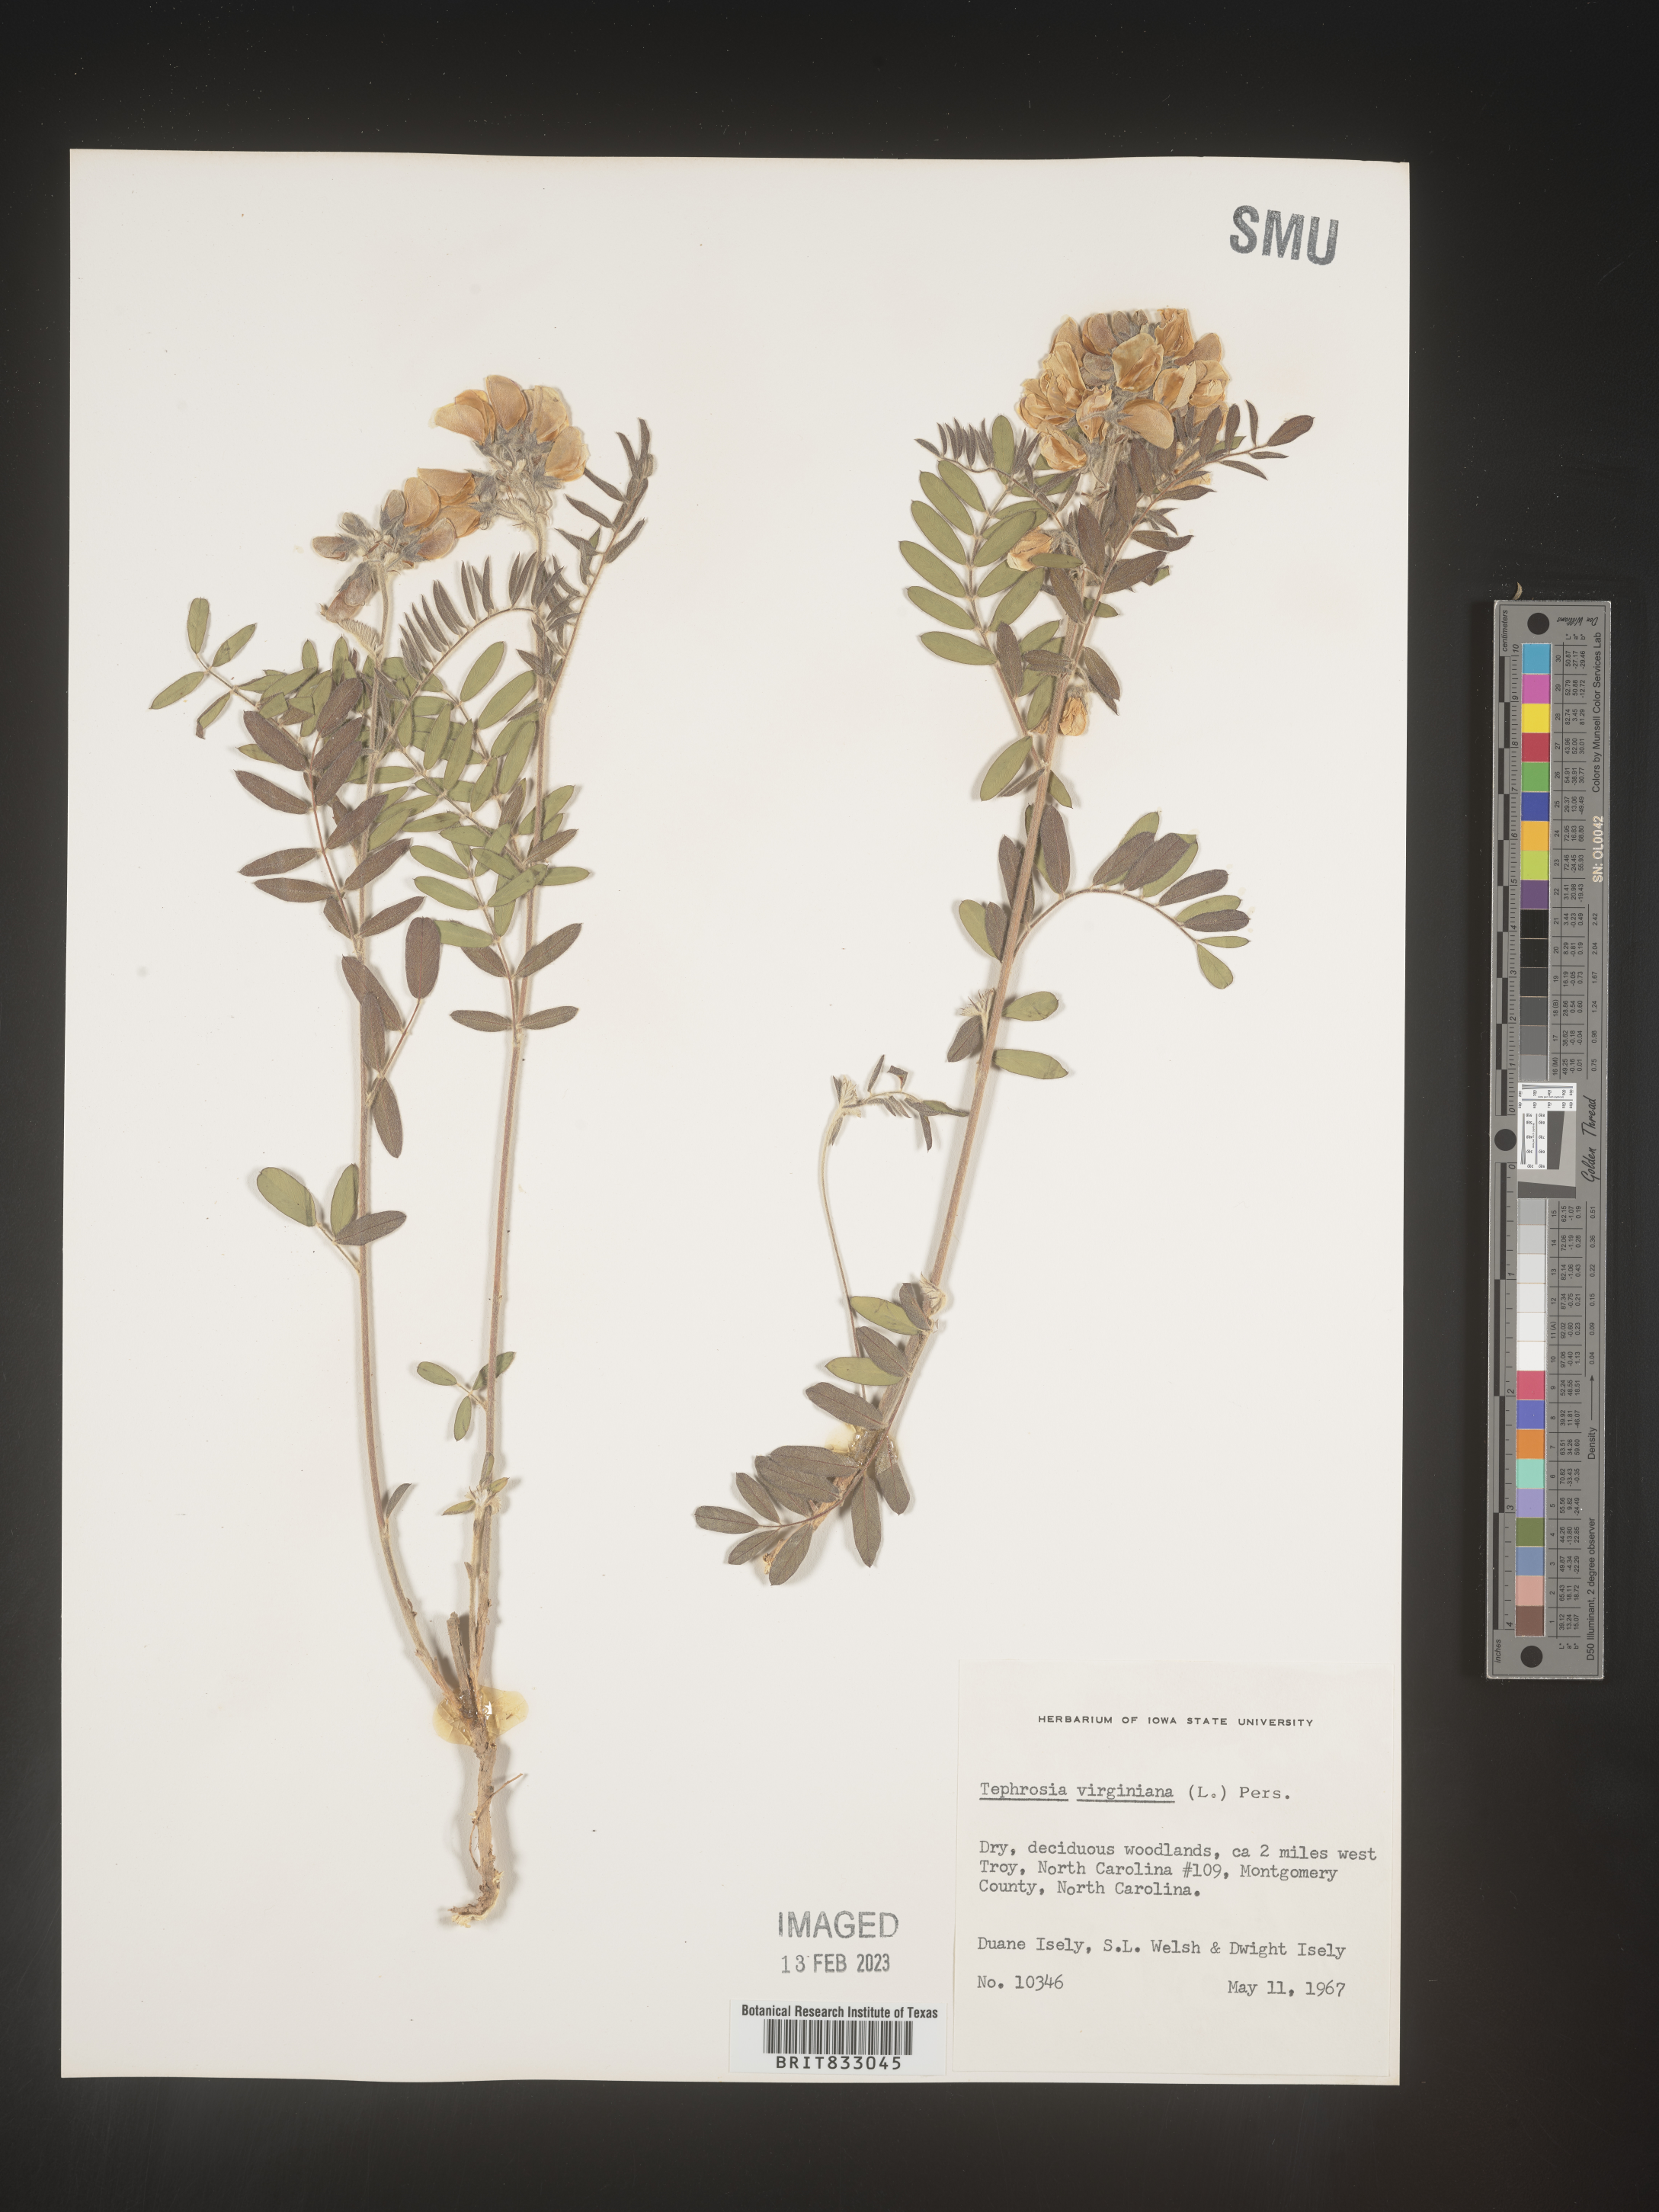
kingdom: Plantae
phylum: Tracheophyta
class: Magnoliopsida
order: Fabales
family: Fabaceae
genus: Tephrosia
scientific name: Tephrosia virginiana
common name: Rabbit-pea
